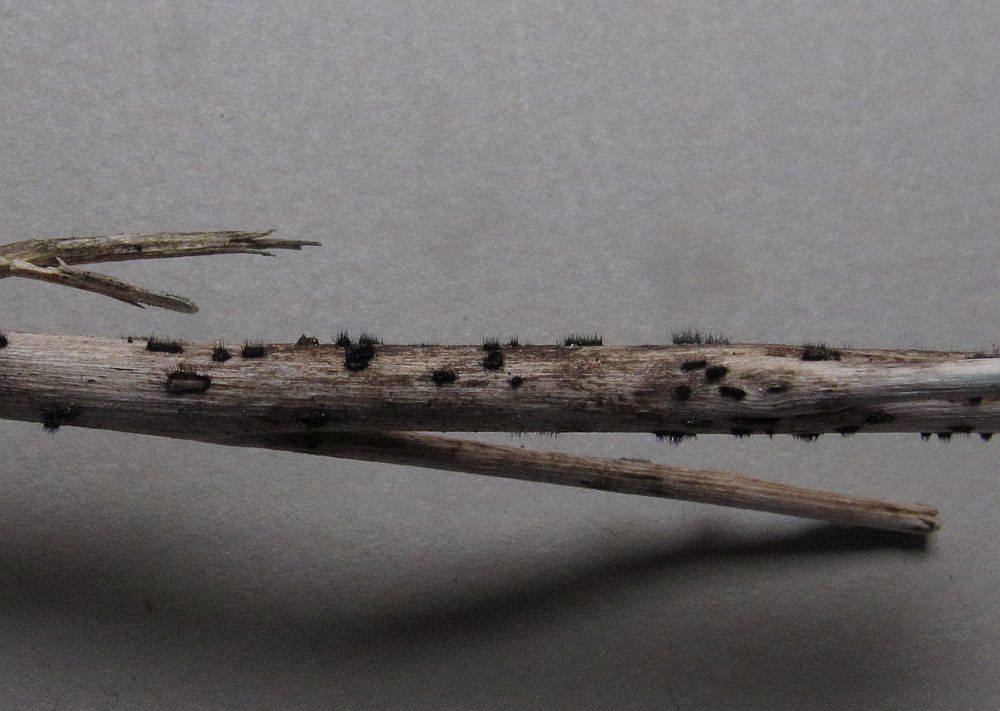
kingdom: Fungi
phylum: Ascomycota
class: Sordariomycetes
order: Chaetosphaeriales
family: Chaetosphaeriaceae
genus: Pseudolachnea
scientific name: Pseudolachnea hispidula
